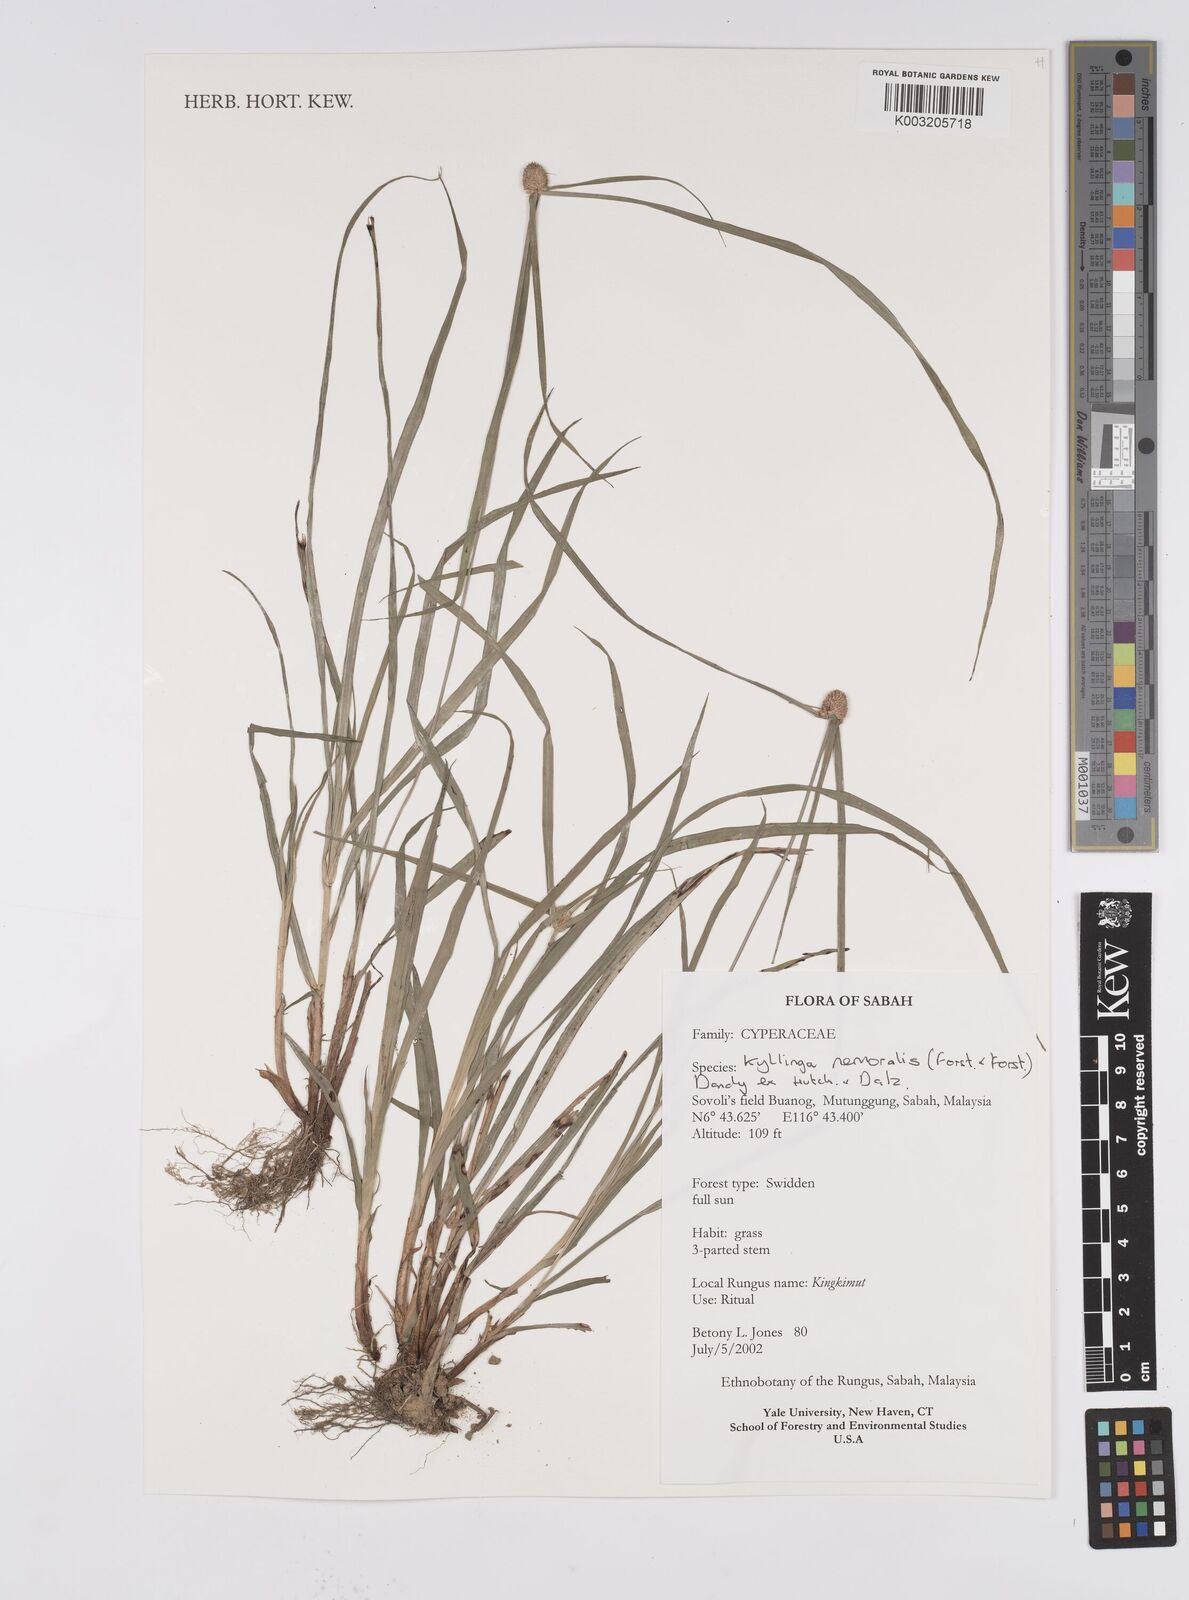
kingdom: Plantae
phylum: Tracheophyta
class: Liliopsida
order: Poales
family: Cyperaceae
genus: Cyperus
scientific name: Cyperus nemoralis
